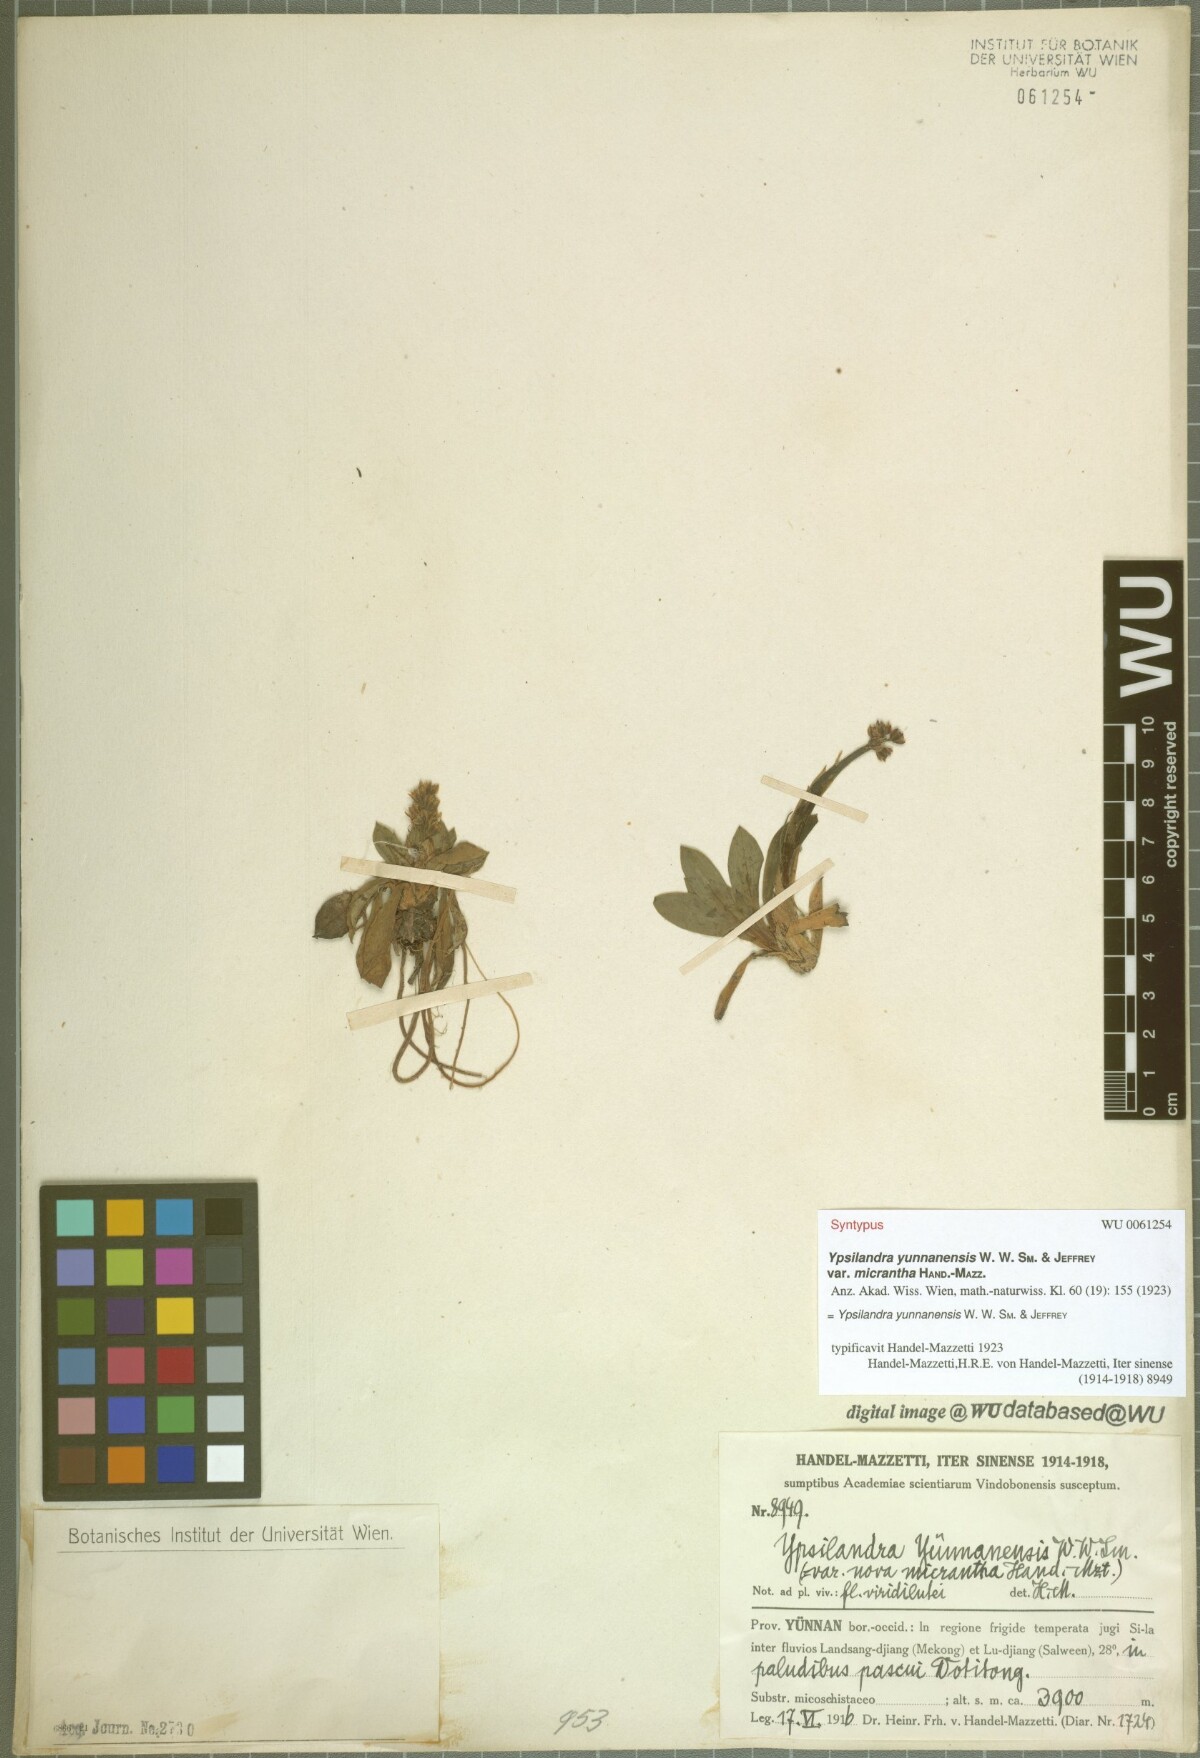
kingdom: Plantae
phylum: Tracheophyta
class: Liliopsida
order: Liliales
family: Melanthiaceae
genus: Helonias
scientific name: Helonias yunnanensis
